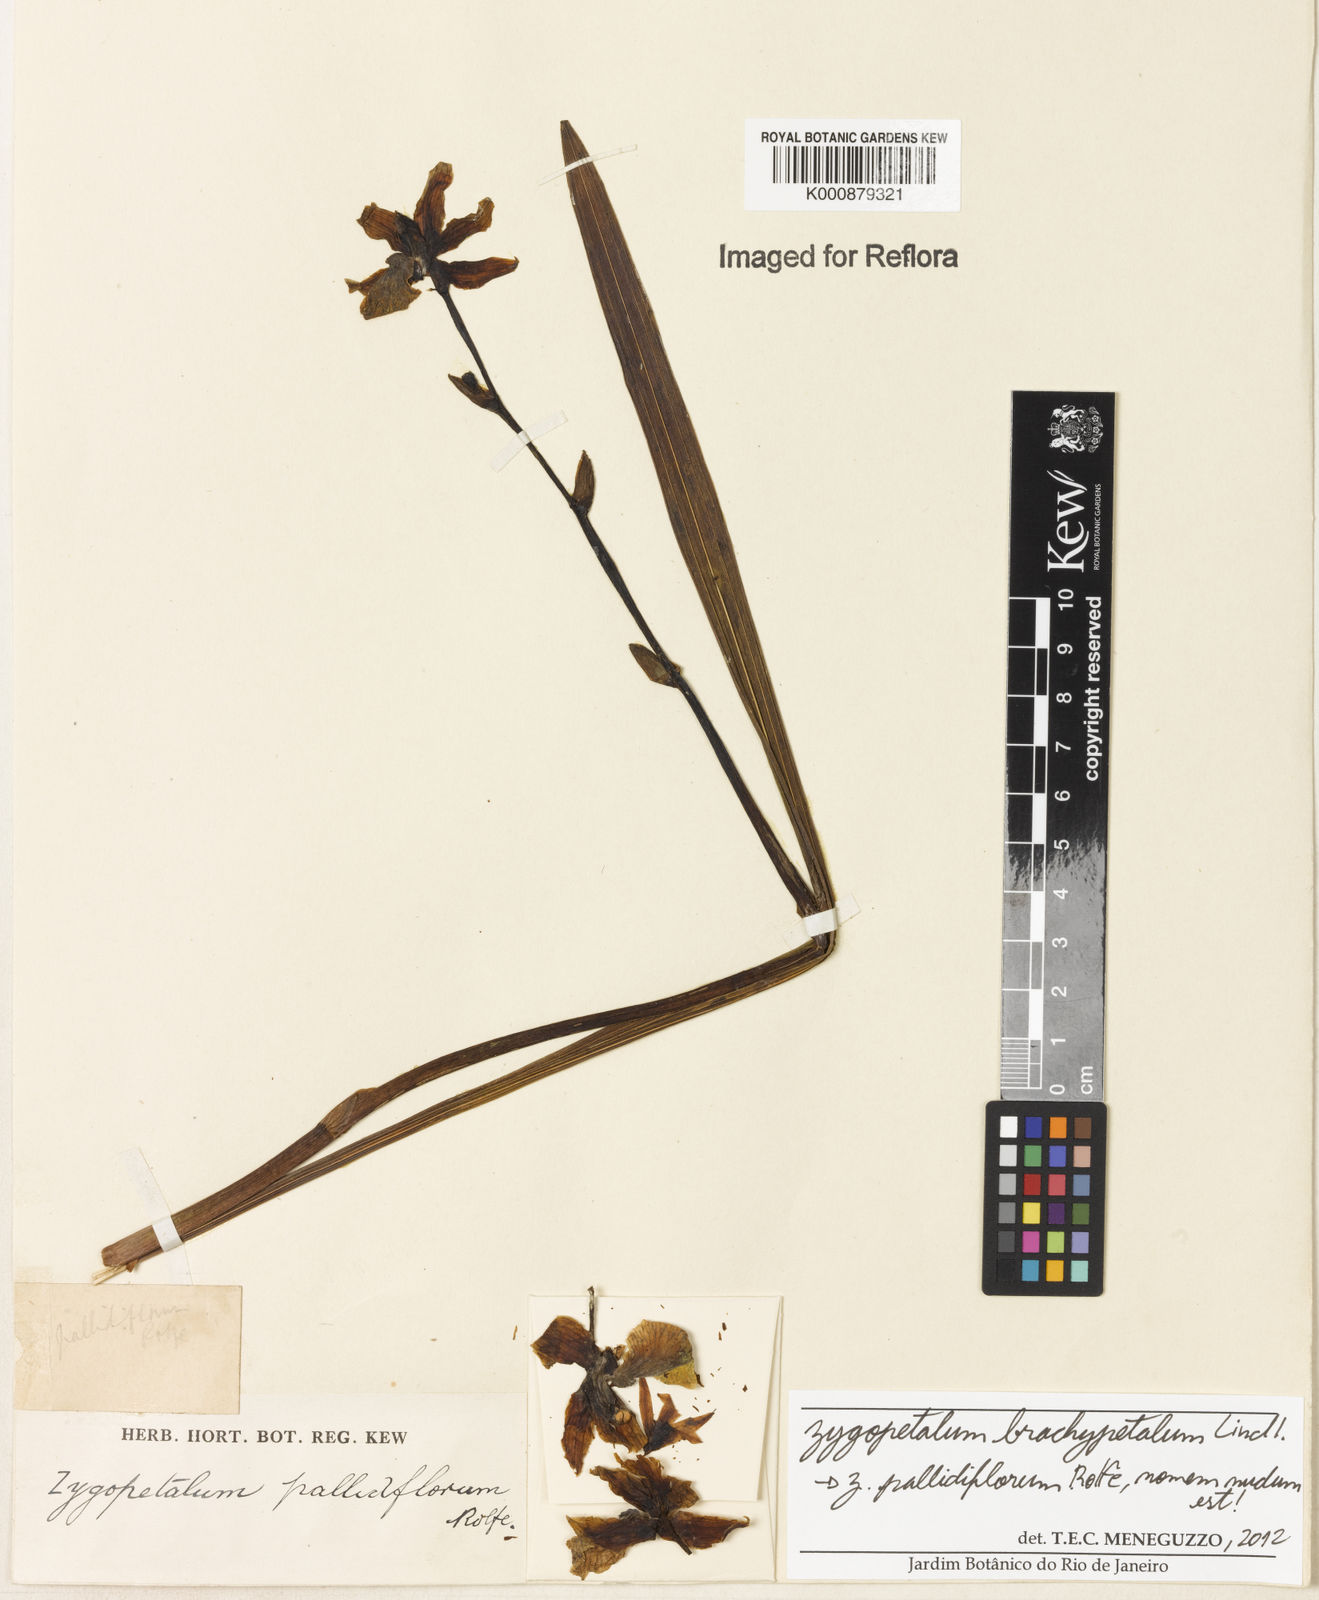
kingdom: Plantae
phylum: Tracheophyta
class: Liliopsida
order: Asparagales
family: Orchidaceae
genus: Zygopetalum
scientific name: Zygopetalum brachypetalum
